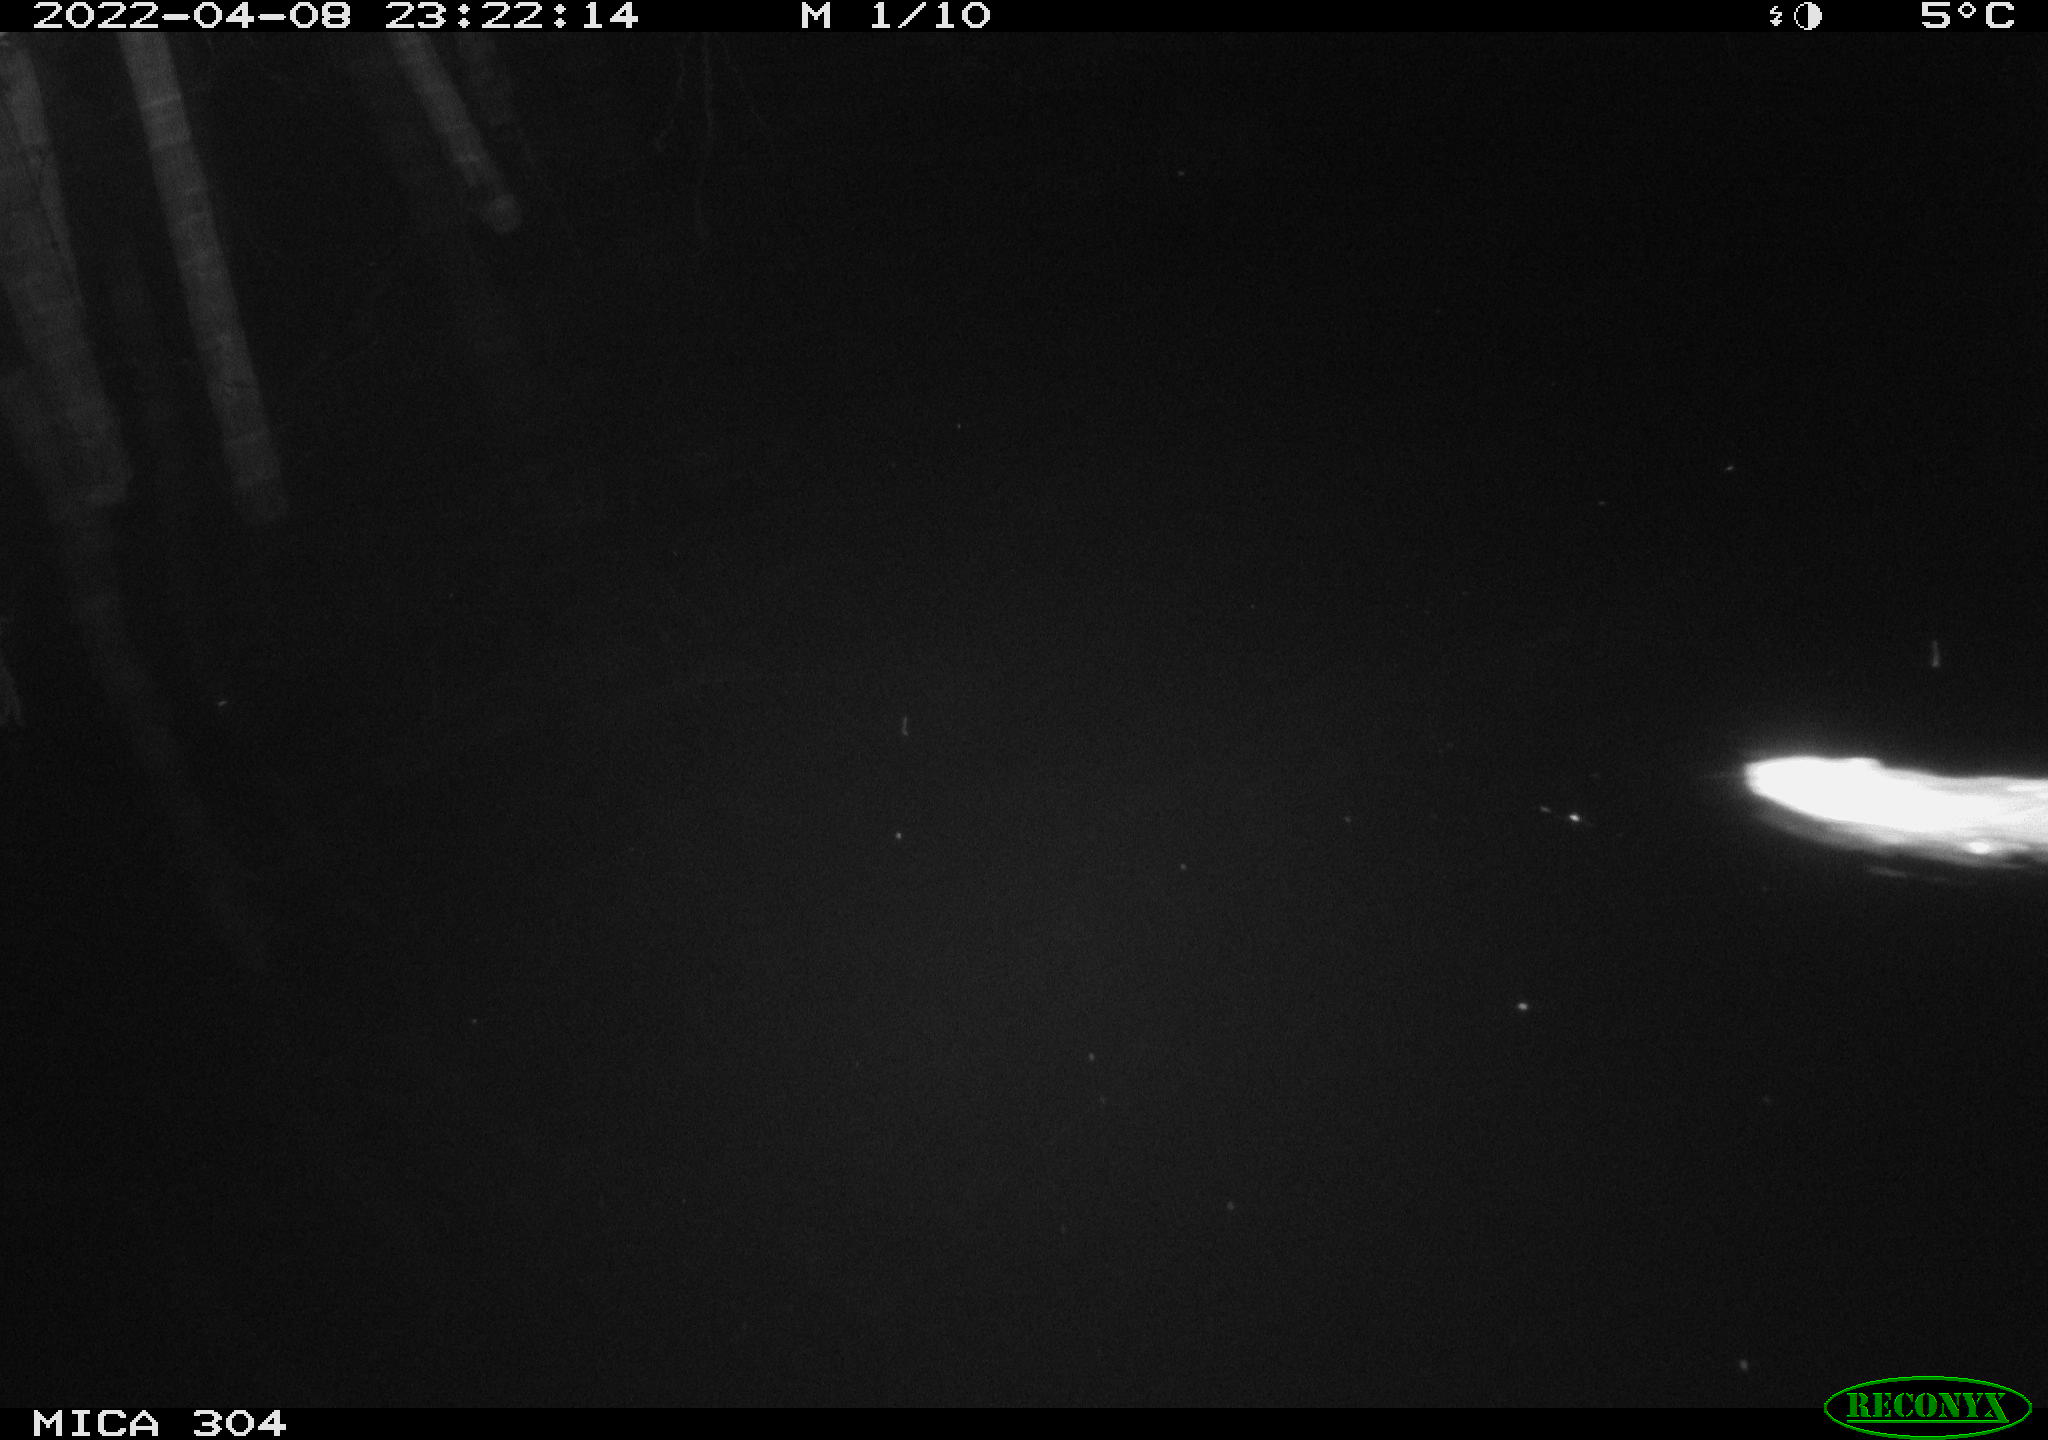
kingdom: Animalia
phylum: Chordata
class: Mammalia
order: Rodentia
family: Muridae
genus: Rattus
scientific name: Rattus norvegicus
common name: Brown rat
